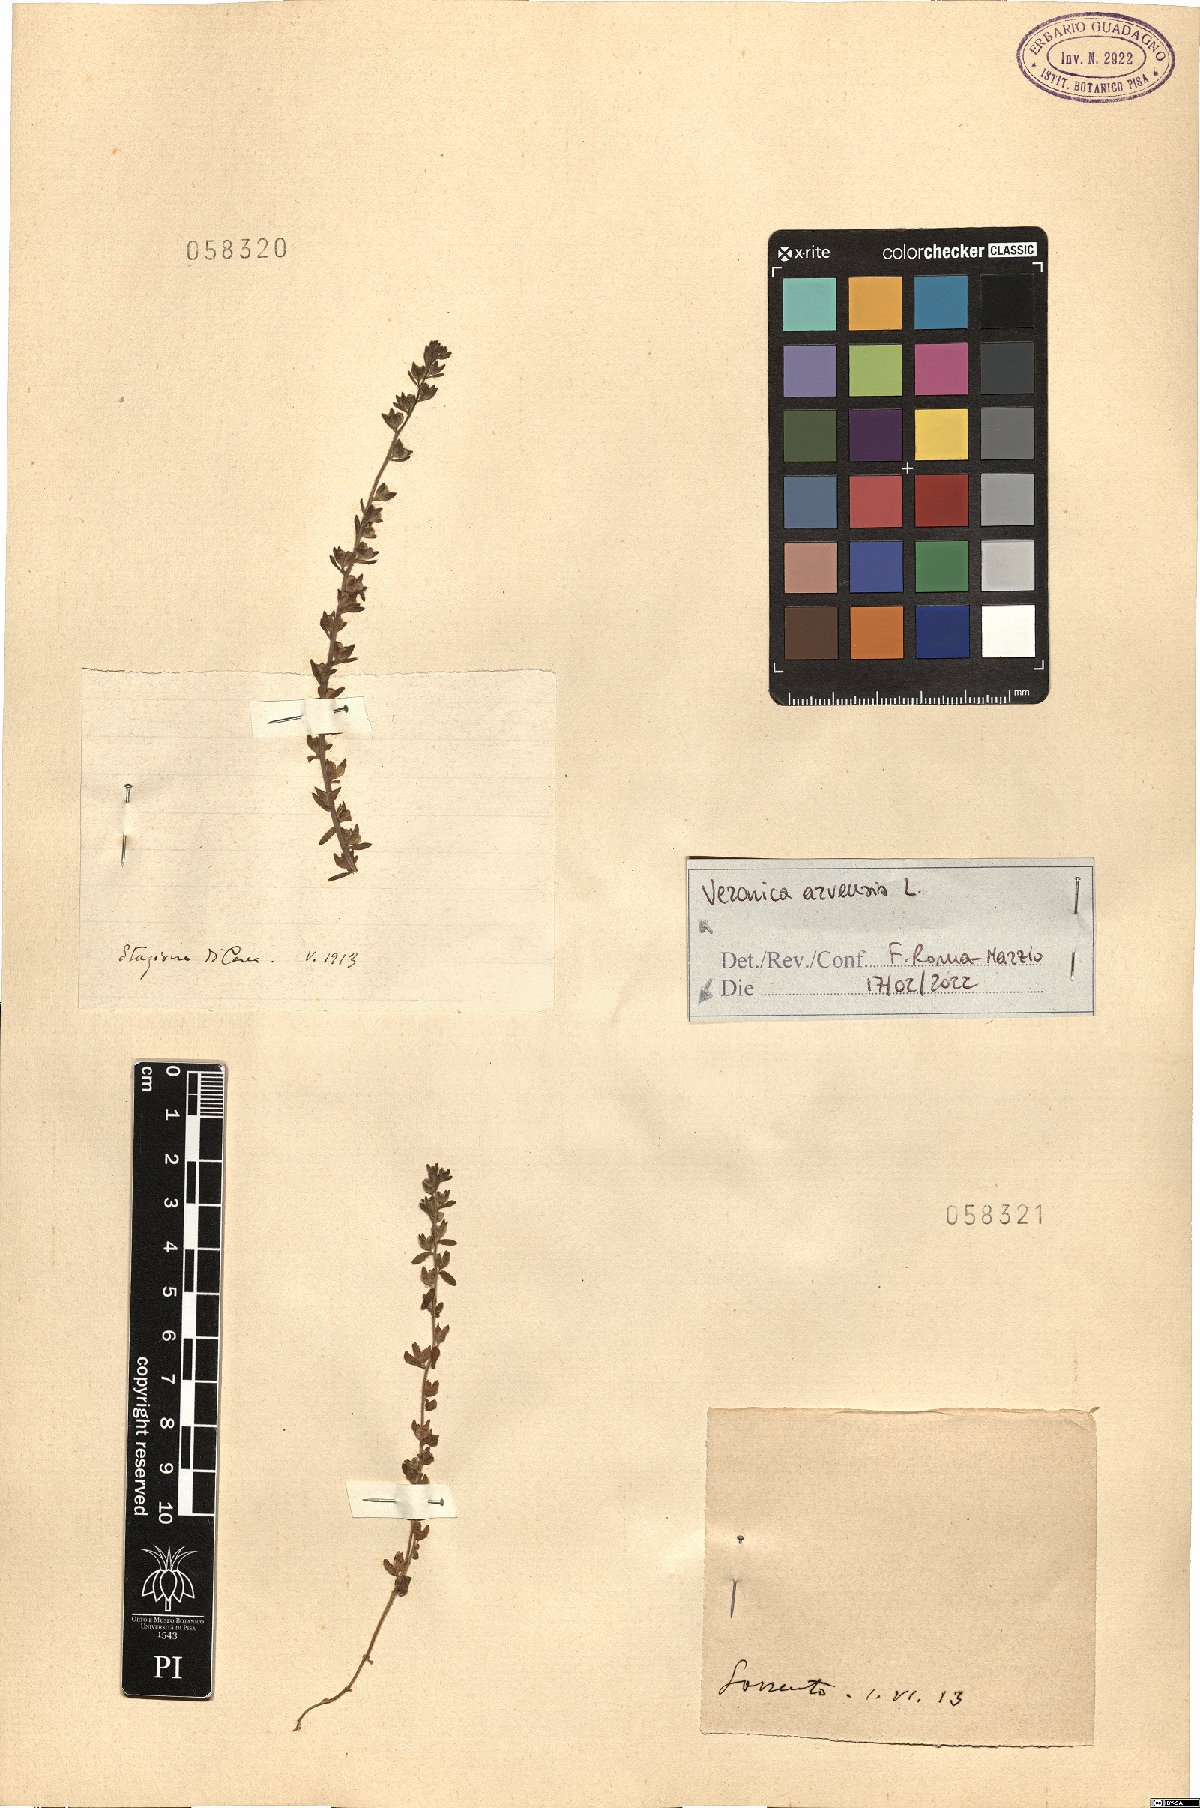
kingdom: Plantae
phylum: Tracheophyta
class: Magnoliopsida
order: Lamiales
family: Plantaginaceae
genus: Veronica
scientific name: Veronica arvensis
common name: Corn speedwell
